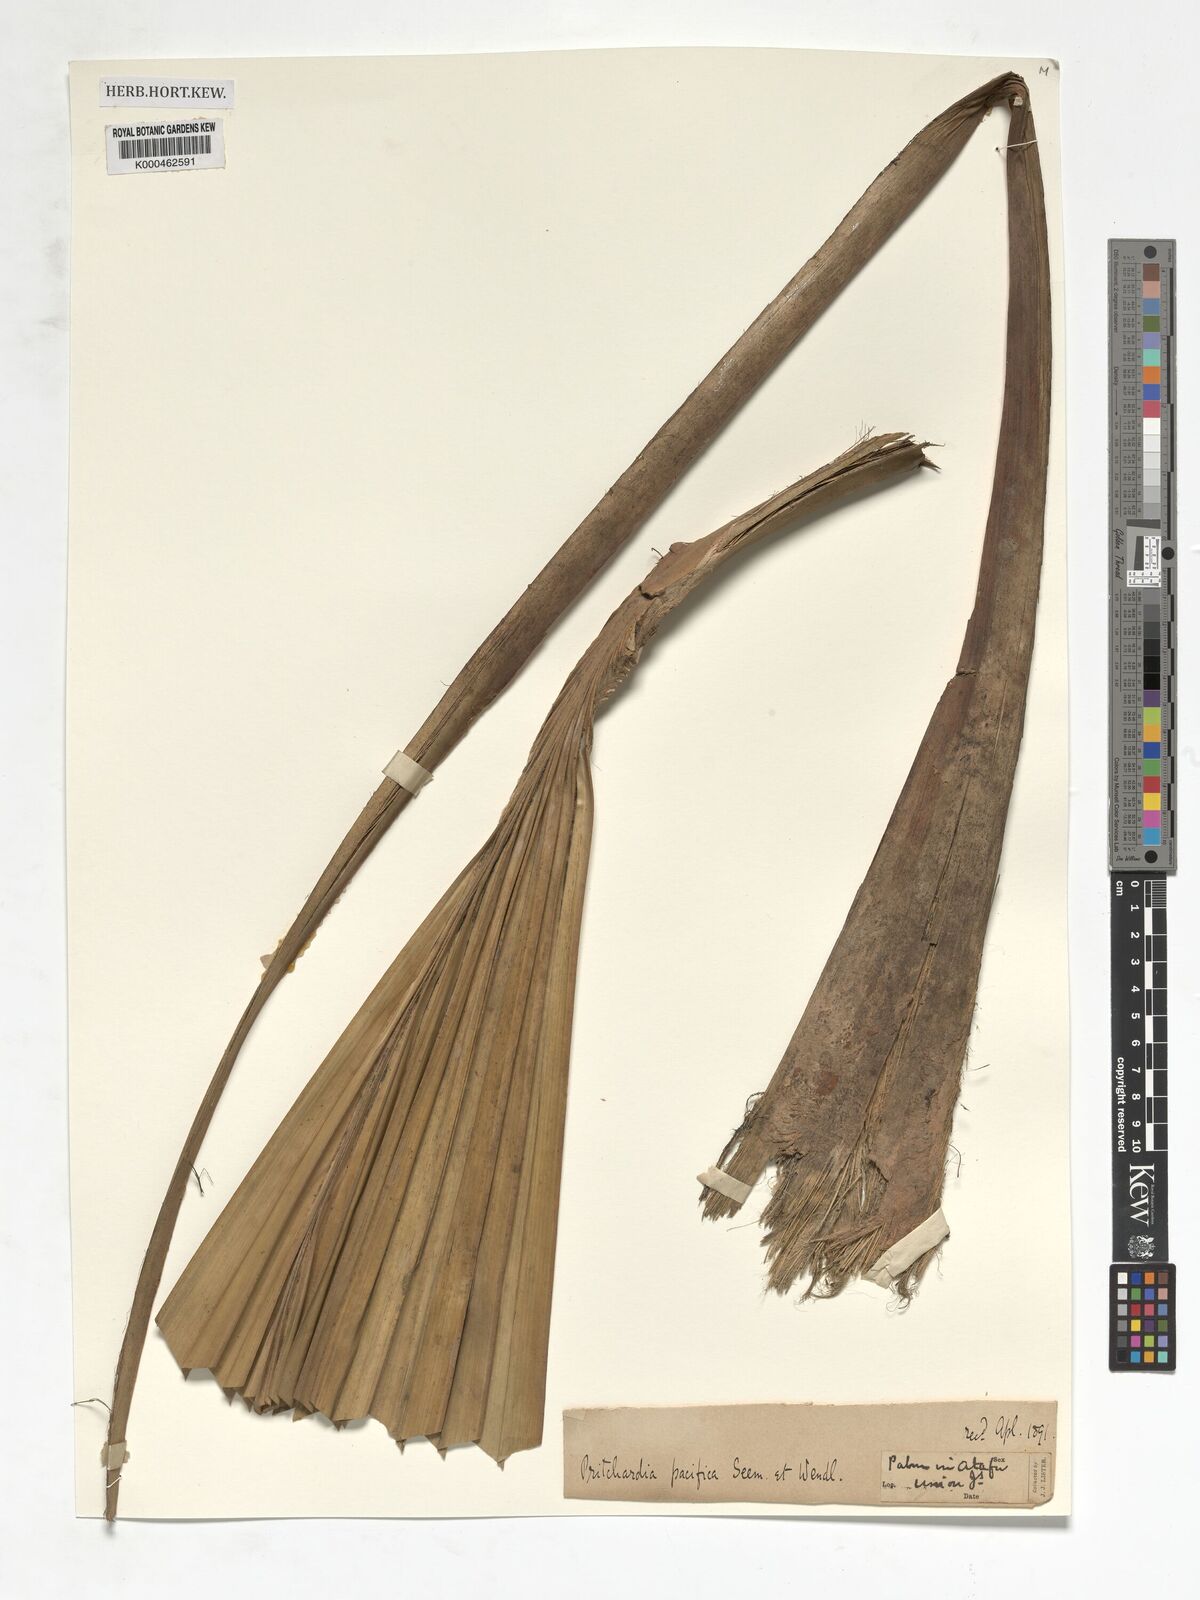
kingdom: Plantae
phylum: Tracheophyta
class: Liliopsida
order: Arecales
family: Arecaceae
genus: Pritchardia
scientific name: Pritchardia pacifica
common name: Fiji fan palm
